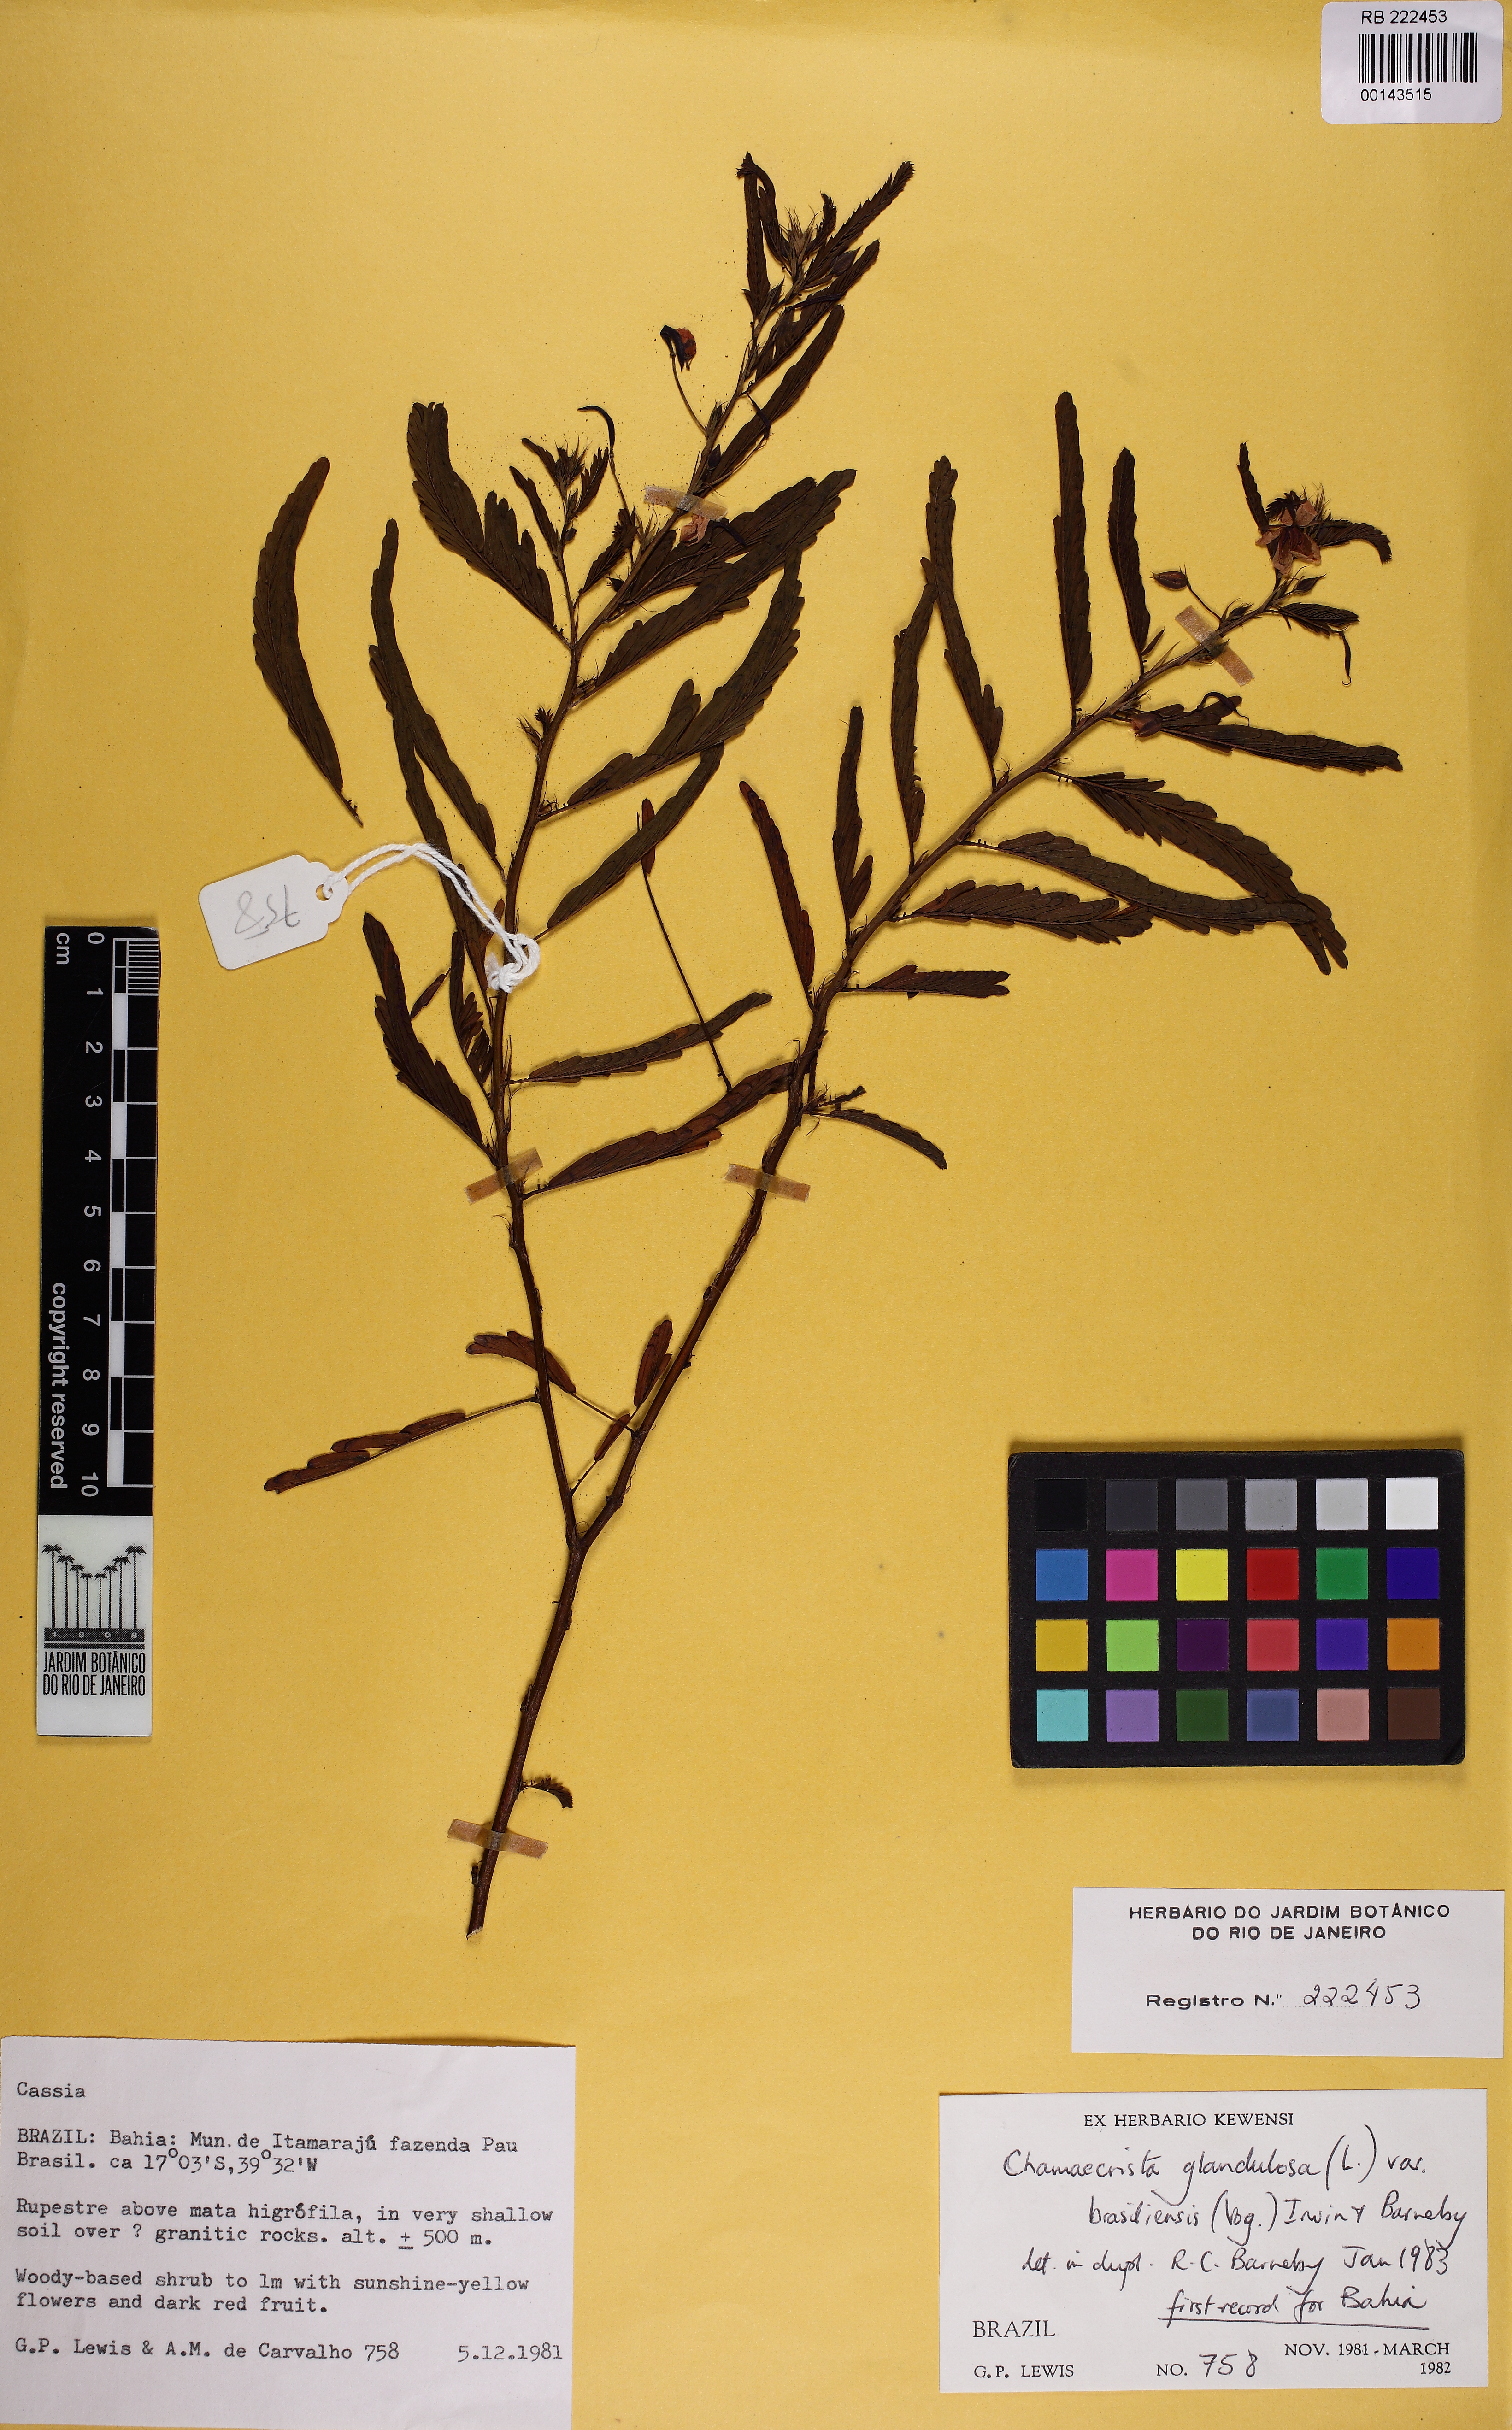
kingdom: Plantae
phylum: Tracheophyta
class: Magnoliopsida
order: Fabales
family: Fabaceae
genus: Chamaecrista
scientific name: Chamaecrista glandulosa
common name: Wild peas
